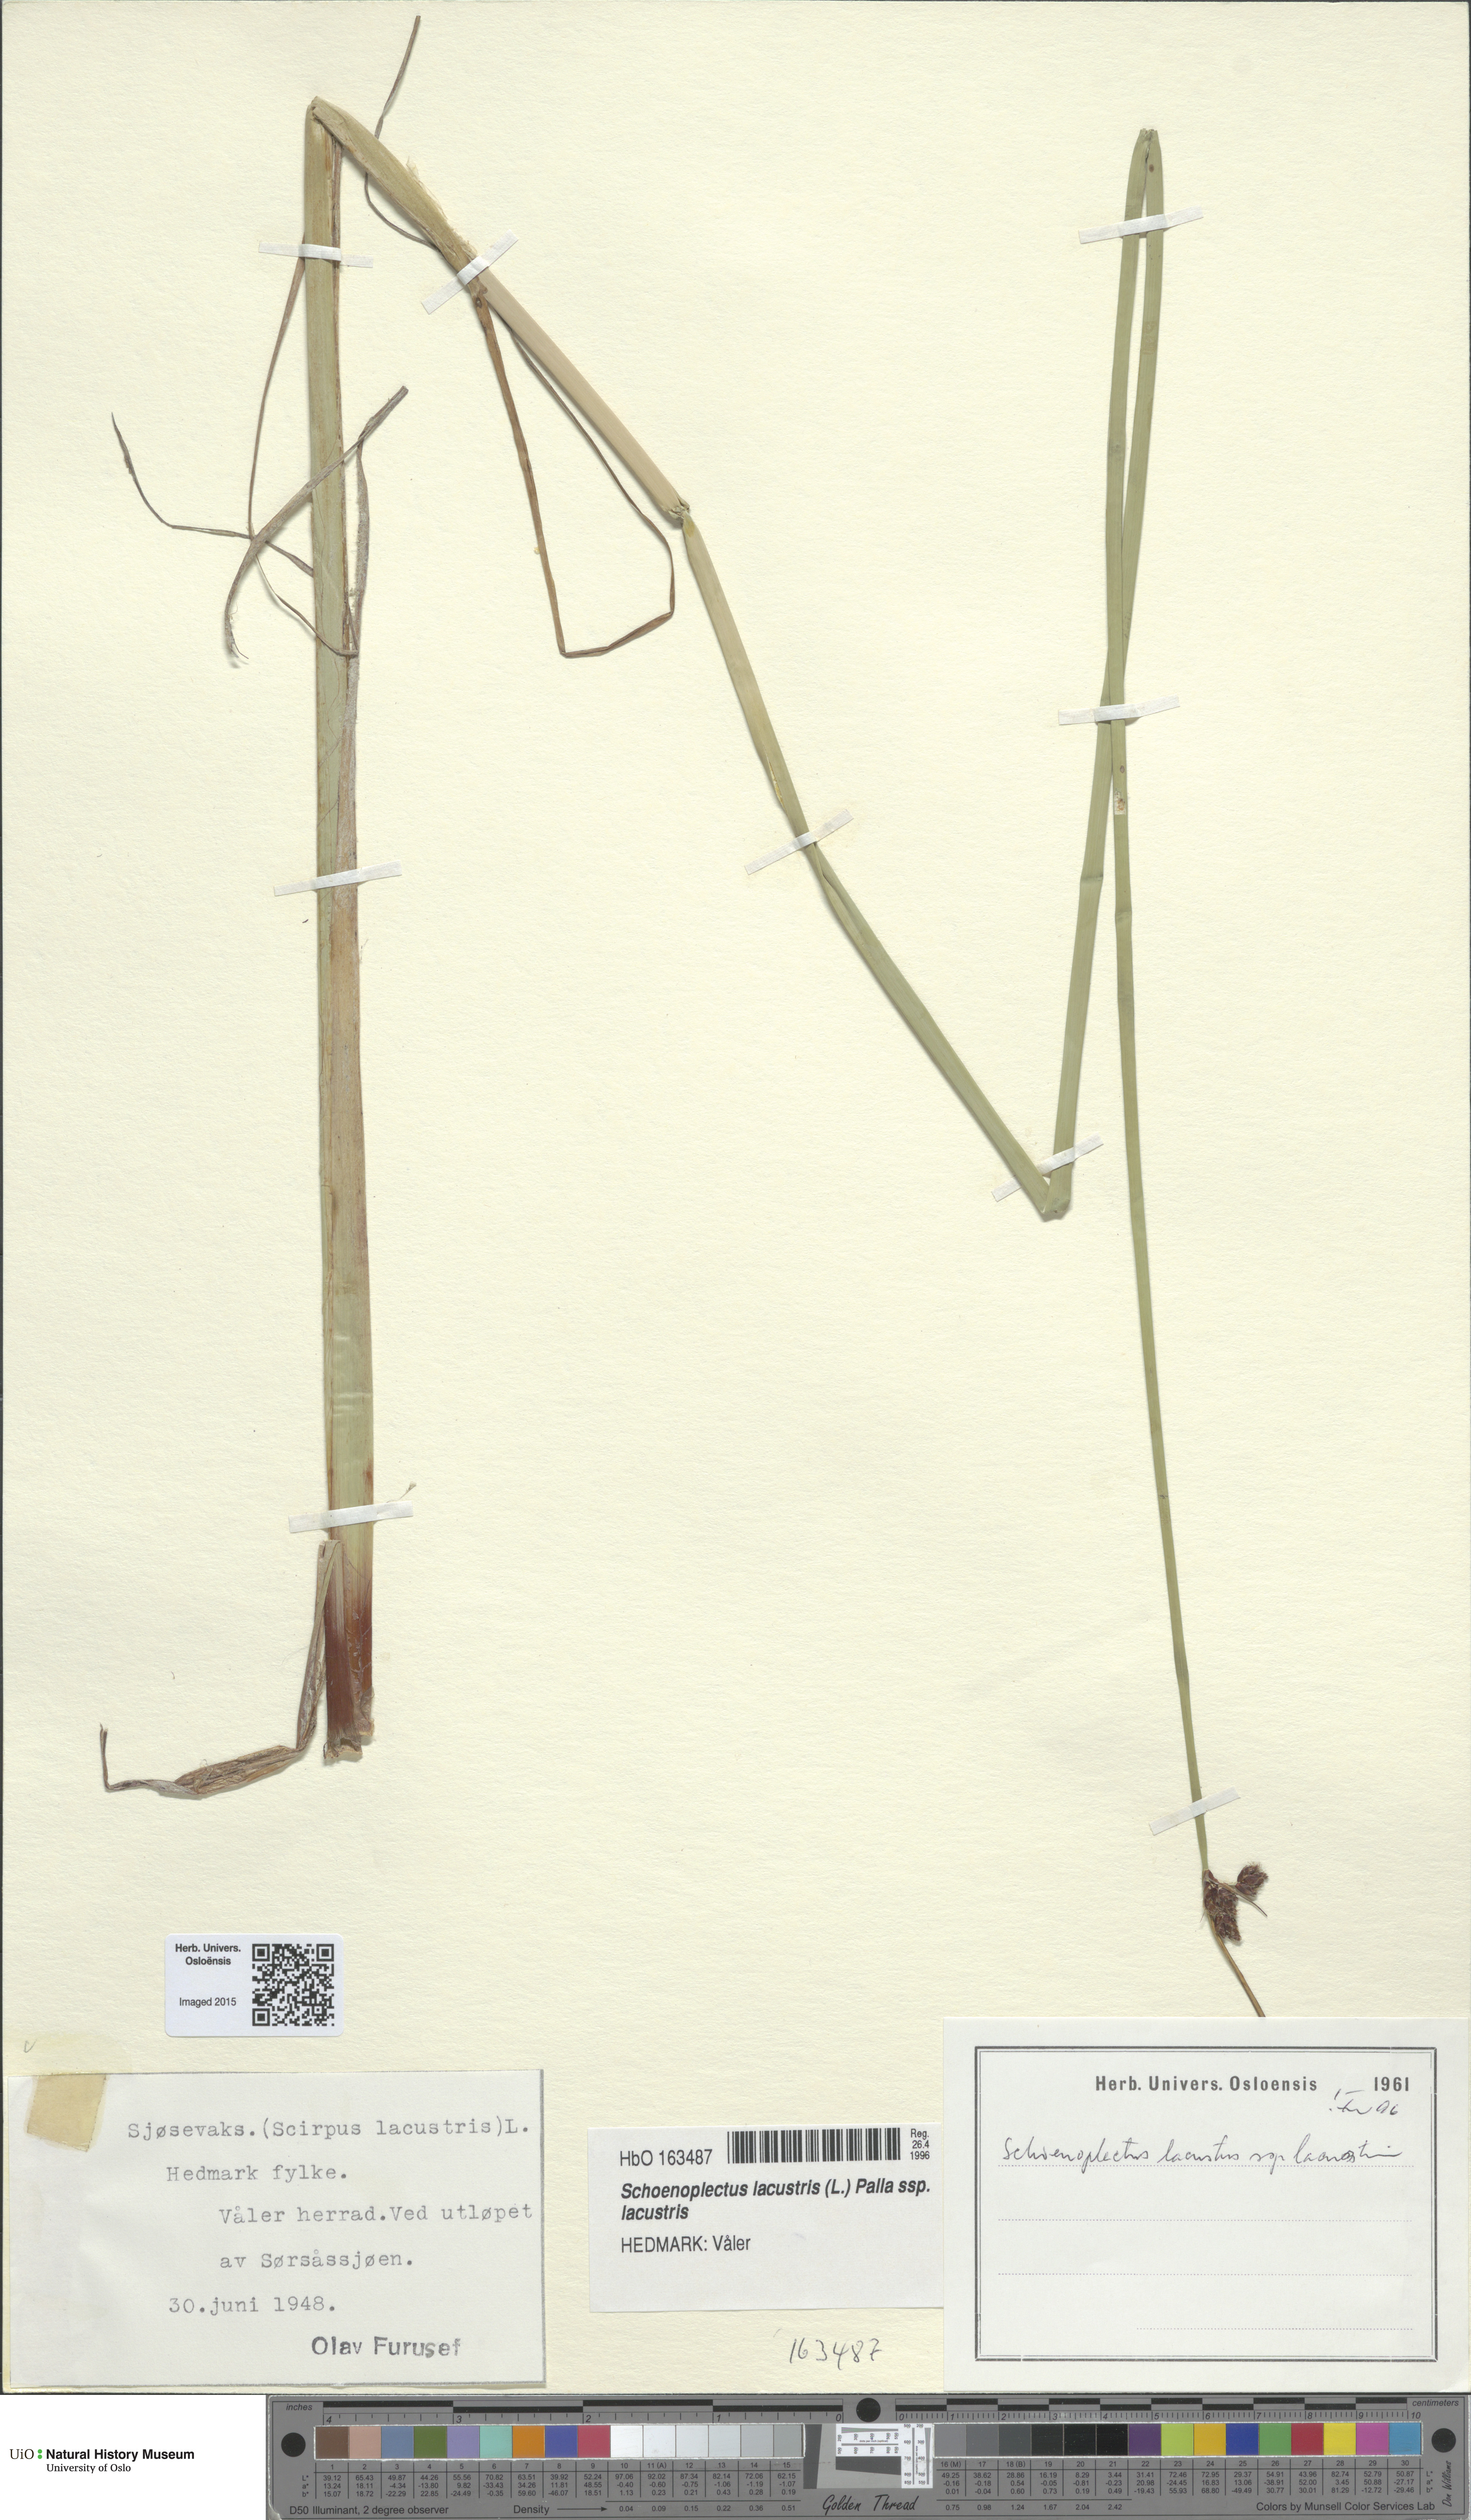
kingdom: Plantae
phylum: Tracheophyta
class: Liliopsida
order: Poales
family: Cyperaceae
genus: Schoenoplectus
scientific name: Schoenoplectus lacustris
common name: Common club-rush
